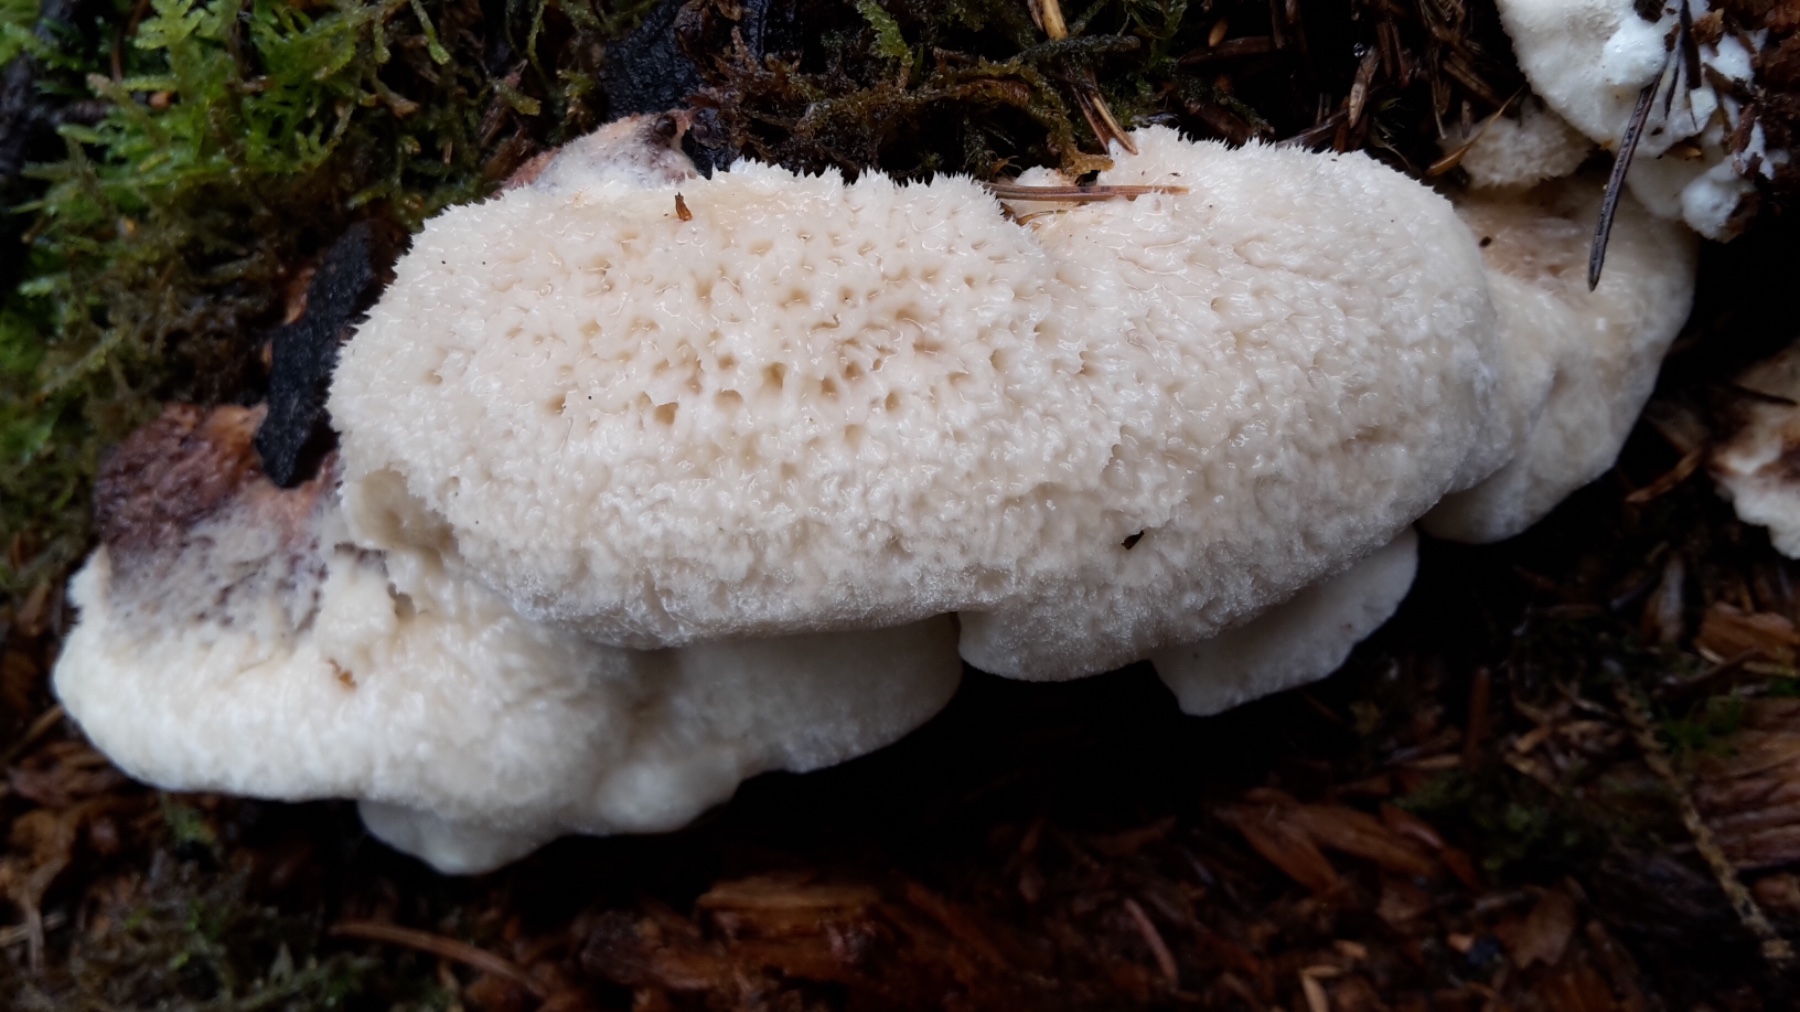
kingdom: Fungi
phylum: Basidiomycota
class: Agaricomycetes
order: Polyporales
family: Dacryobolaceae
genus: Postia
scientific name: Postia ptychogaster
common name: støvende kødporesvamp
